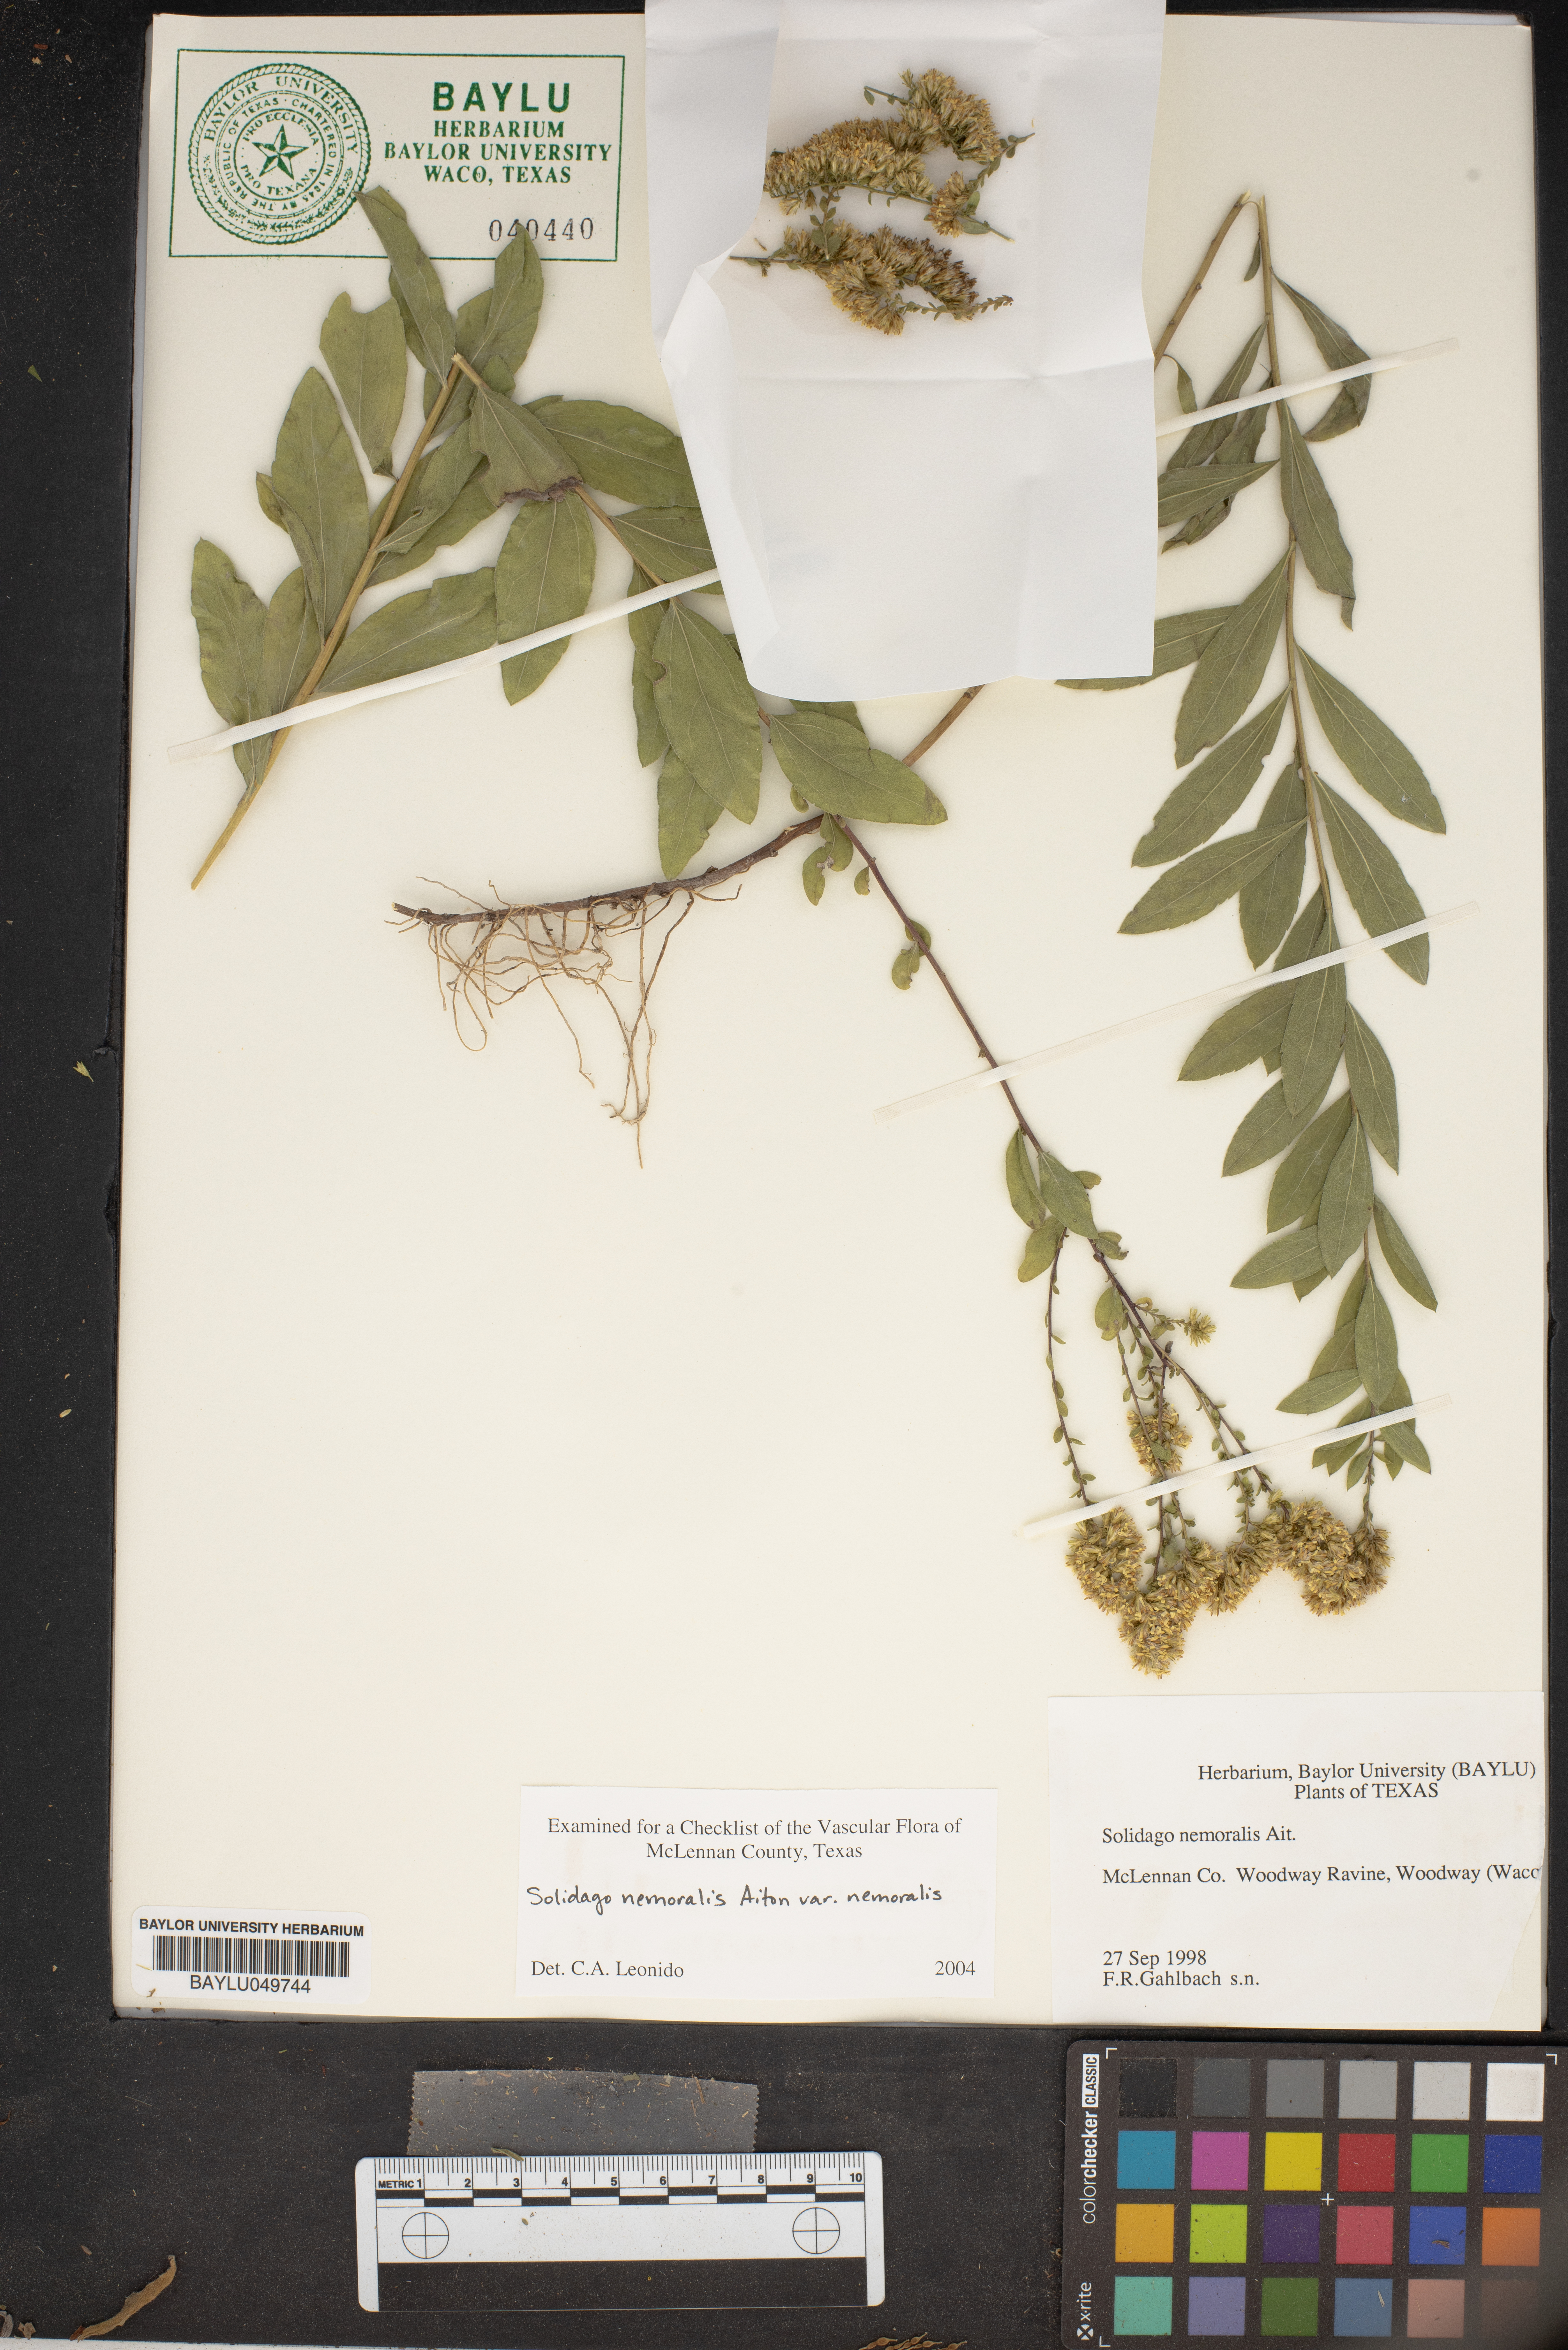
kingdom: Plantae
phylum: Tracheophyta
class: Magnoliopsida
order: Asterales
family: Asteraceae
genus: Solidago
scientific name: Solidago nemoralis
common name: Grey goldenrod
